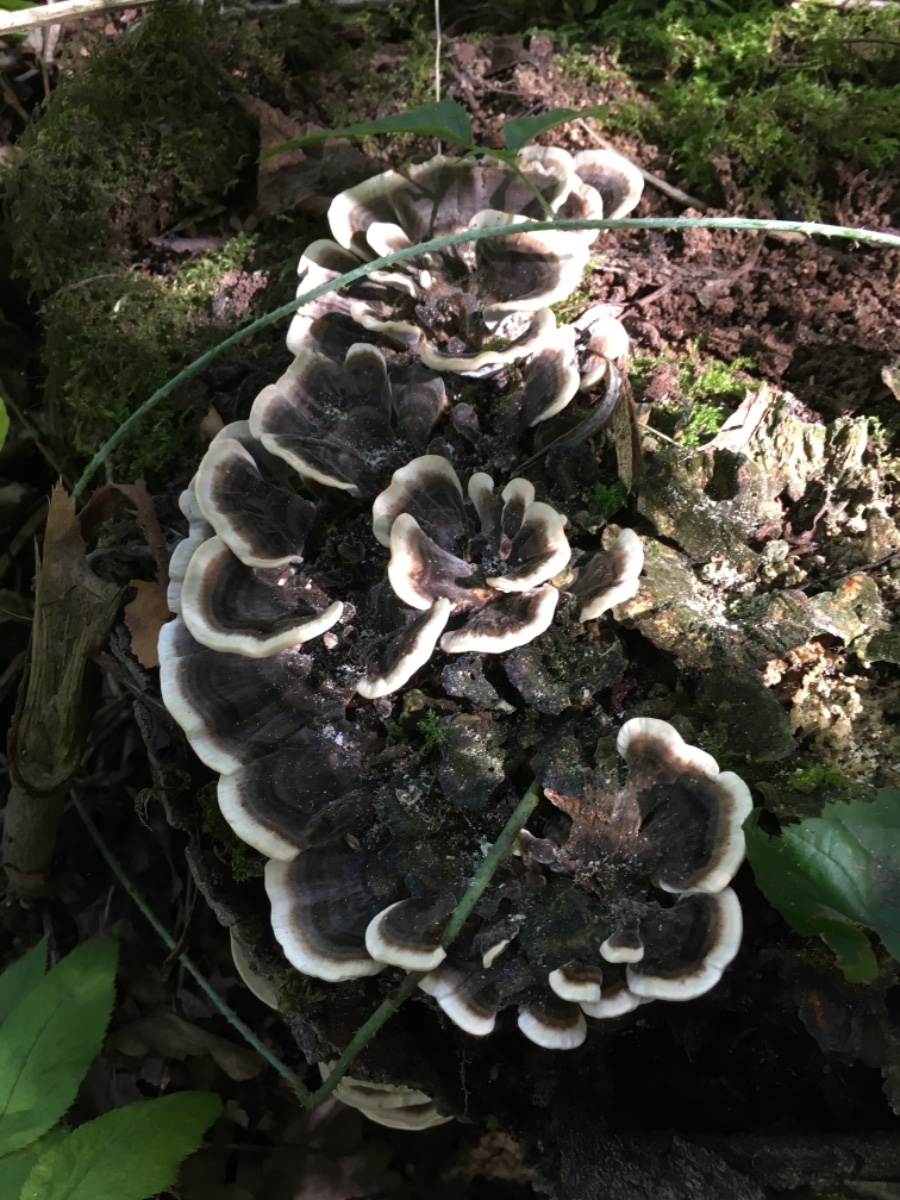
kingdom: Fungi
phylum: Basidiomycota
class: Agaricomycetes
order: Polyporales
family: Polyporaceae
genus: Trametes
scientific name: Trametes versicolor
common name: broget læderporesvamp
